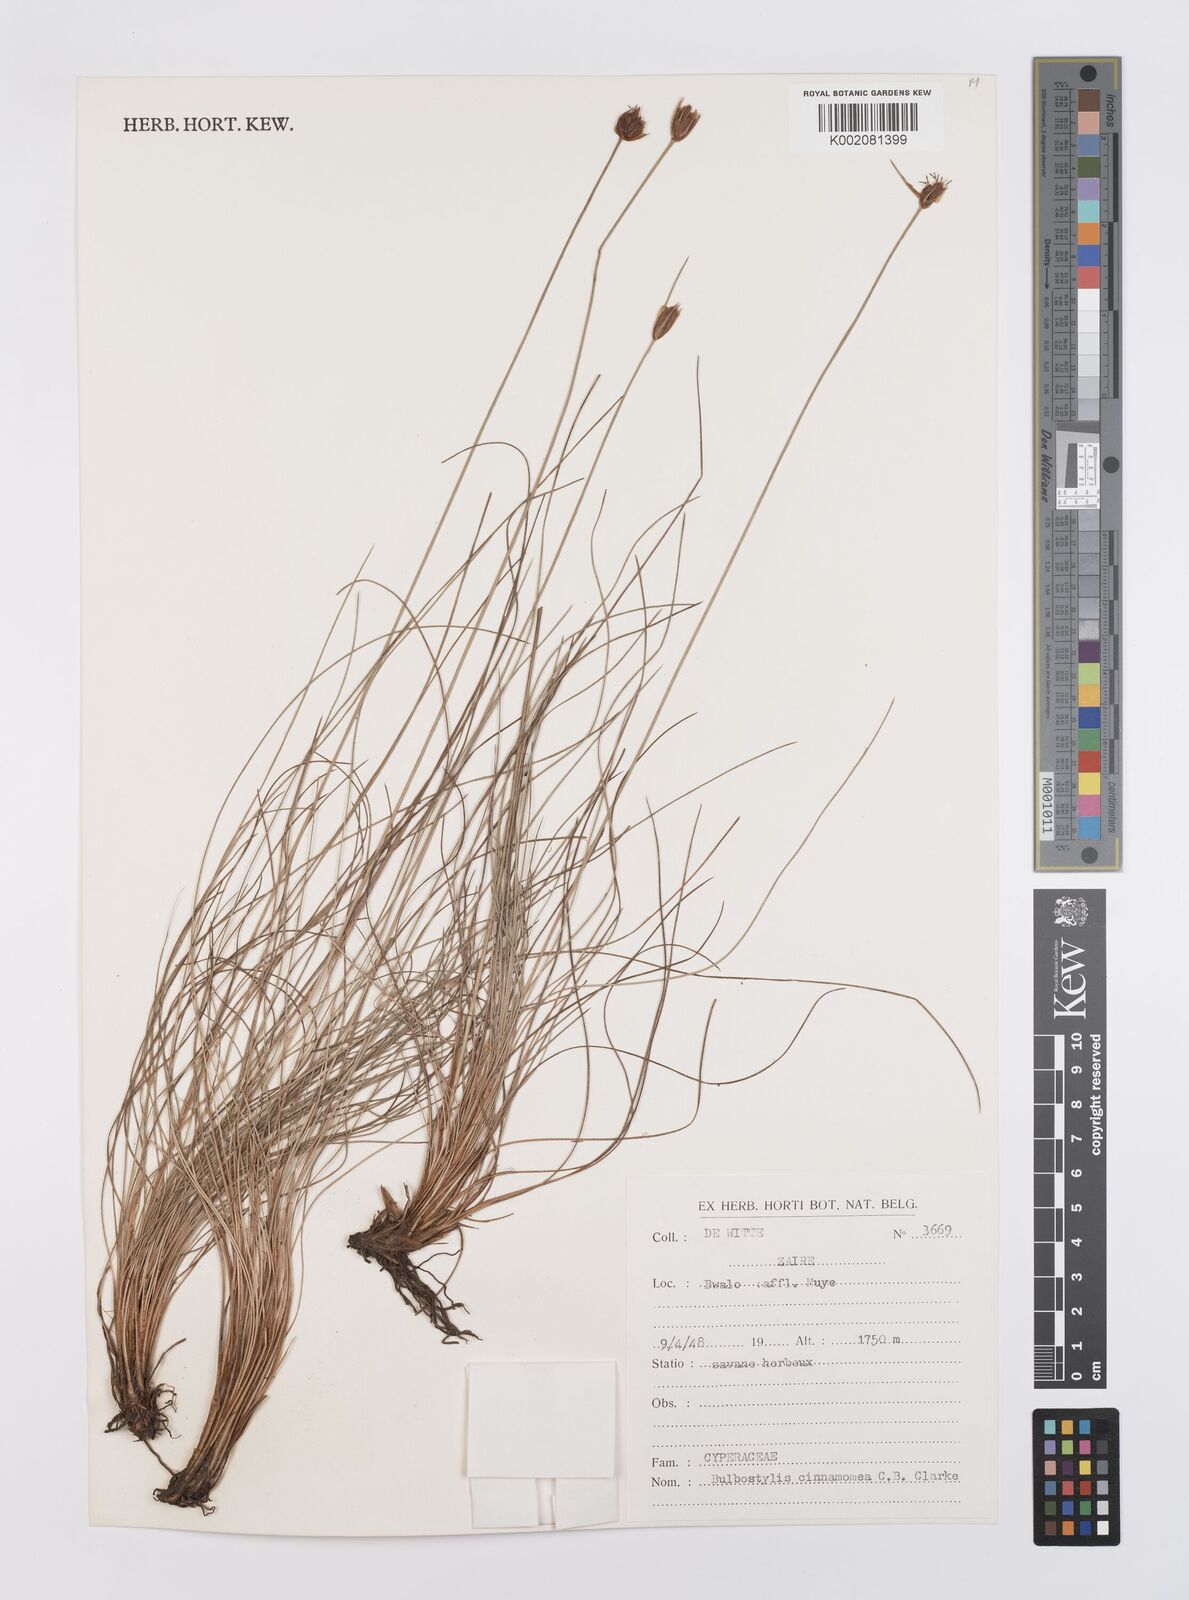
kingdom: Plantae
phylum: Tracheophyta
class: Liliopsida
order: Poales
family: Cyperaceae
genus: Bulbostylis
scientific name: Bulbostylis schoenoides
